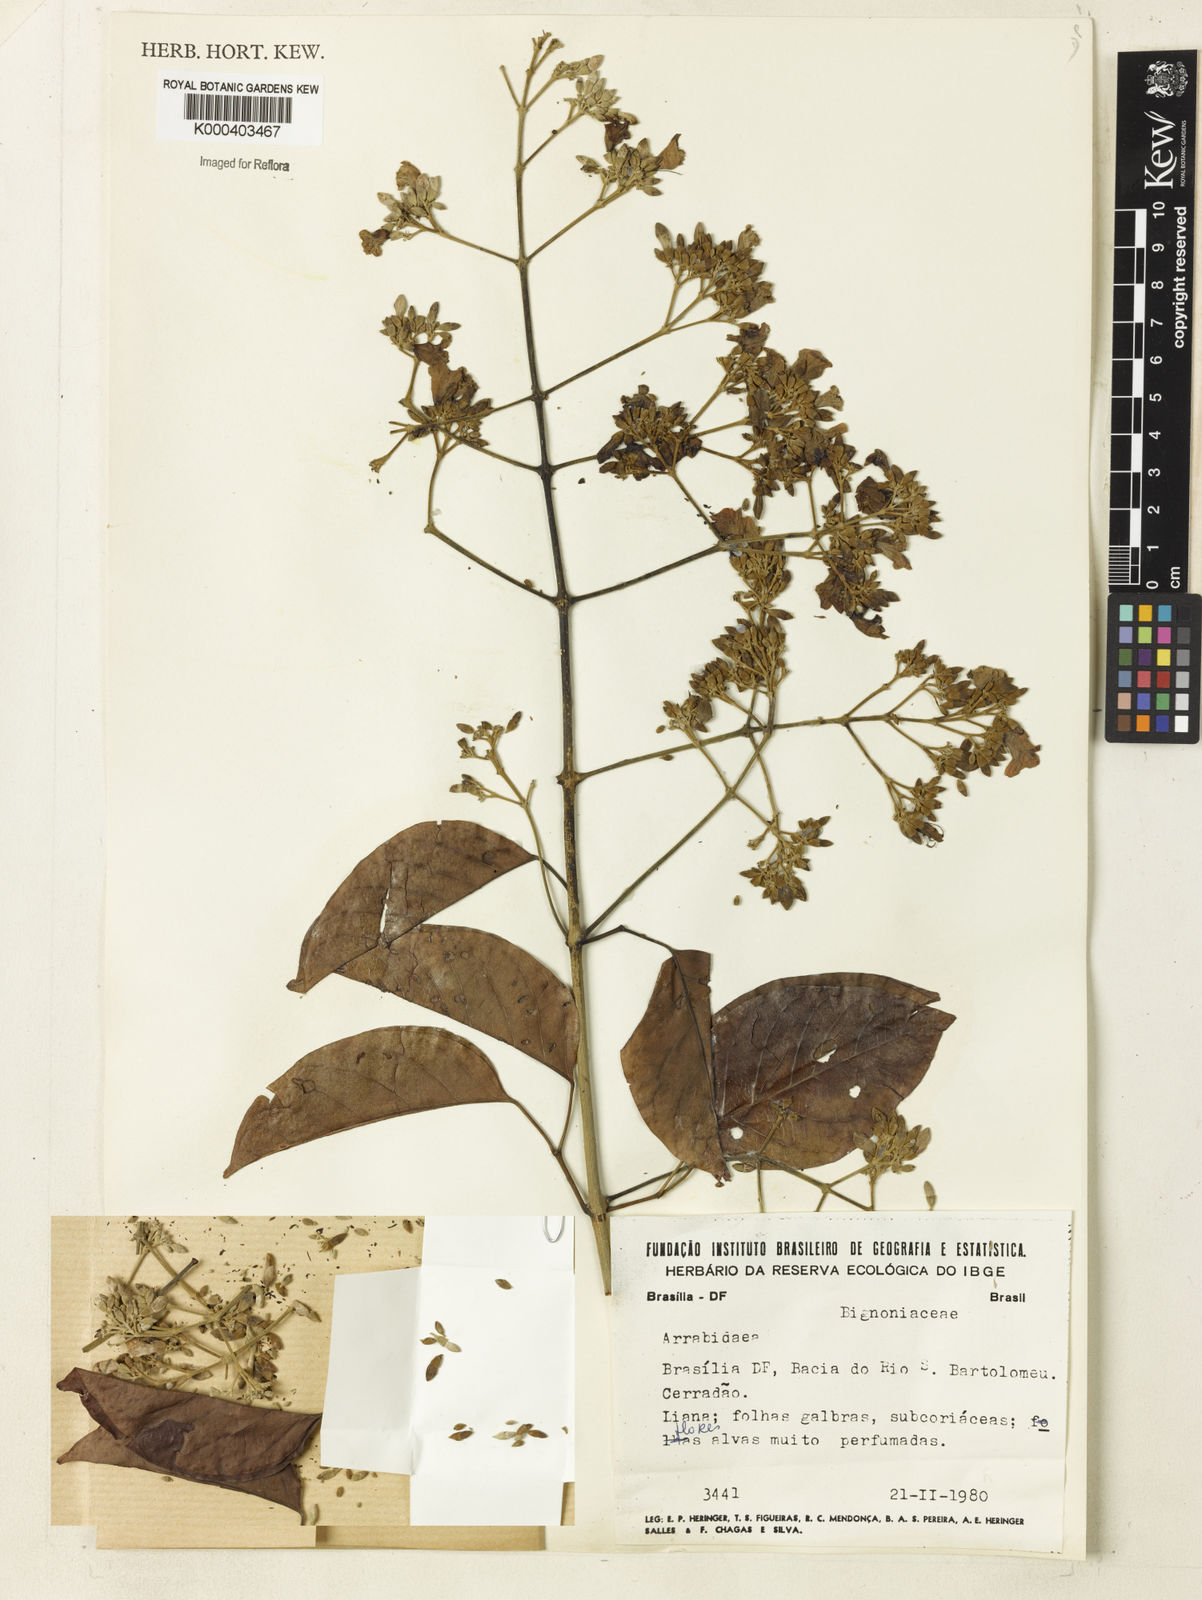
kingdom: Plantae
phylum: Tracheophyta
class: Magnoliopsida
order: Rosales
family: Rhamnaceae
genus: Arrabidaea
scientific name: Arrabidaea
